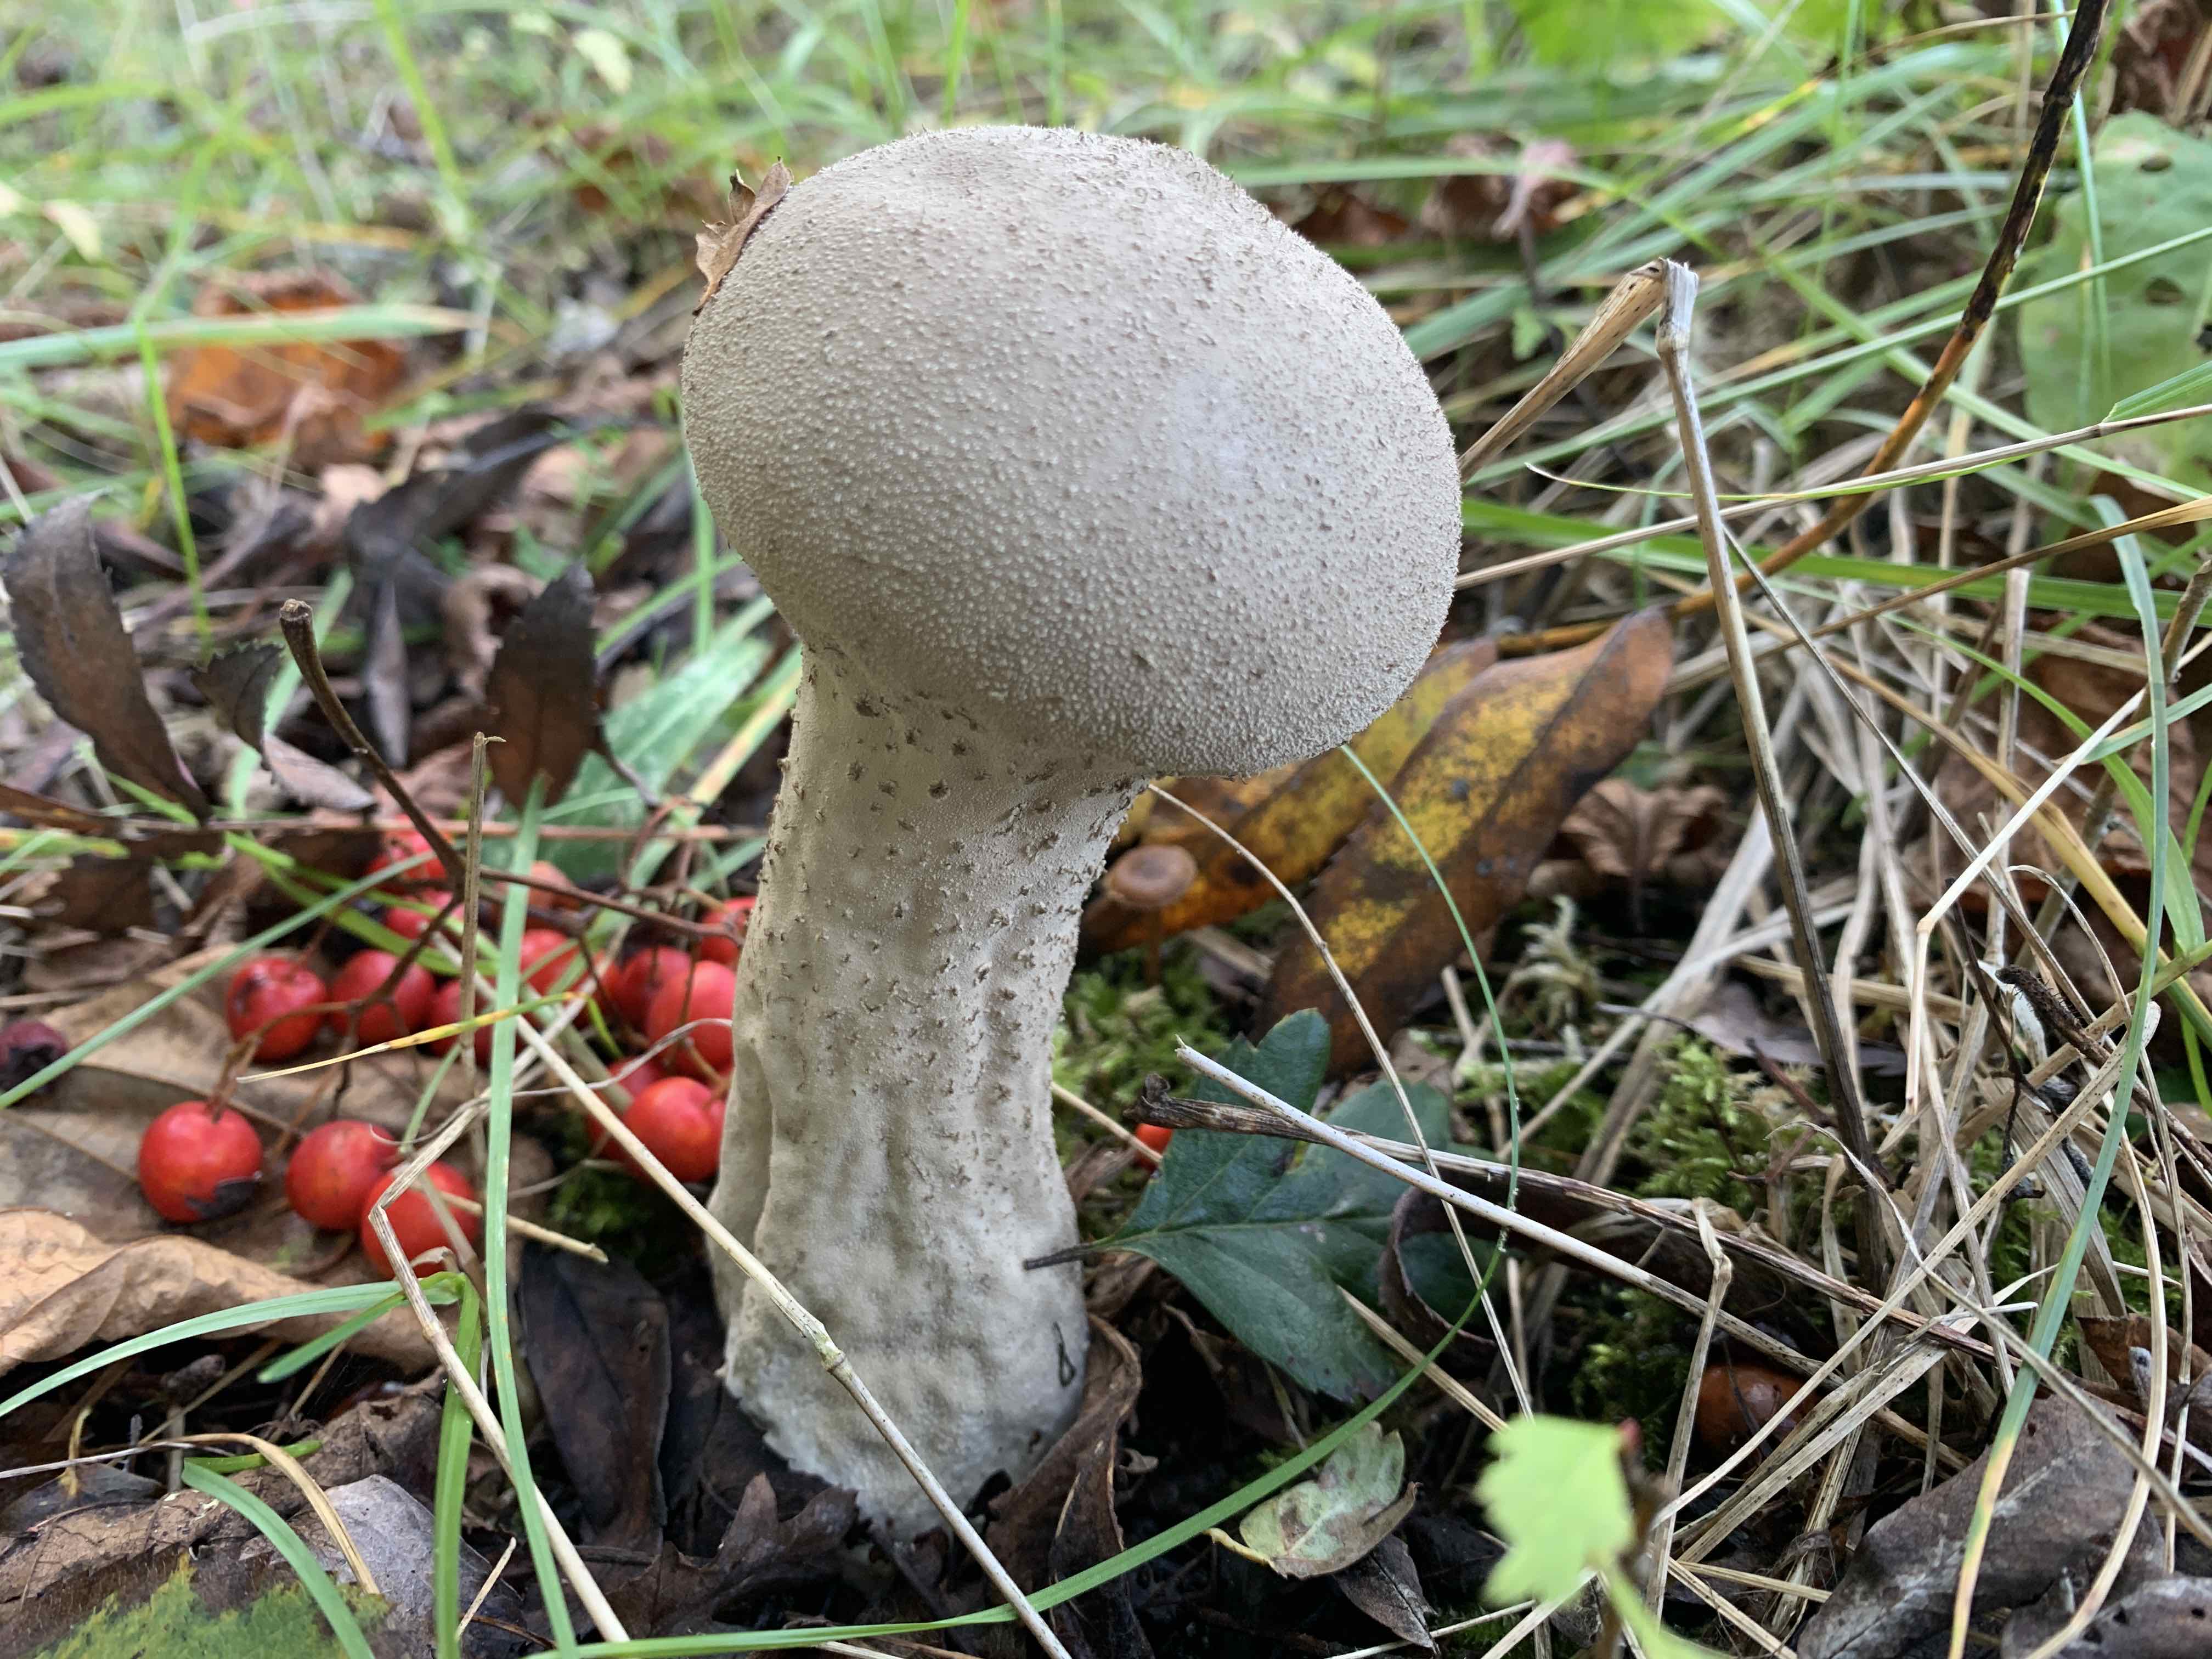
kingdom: Fungi
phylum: Basidiomycota
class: Agaricomycetes
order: Agaricales
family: Lycoperdaceae
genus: Lycoperdon
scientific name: Lycoperdon excipuliforme
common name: højstokket støvbold
